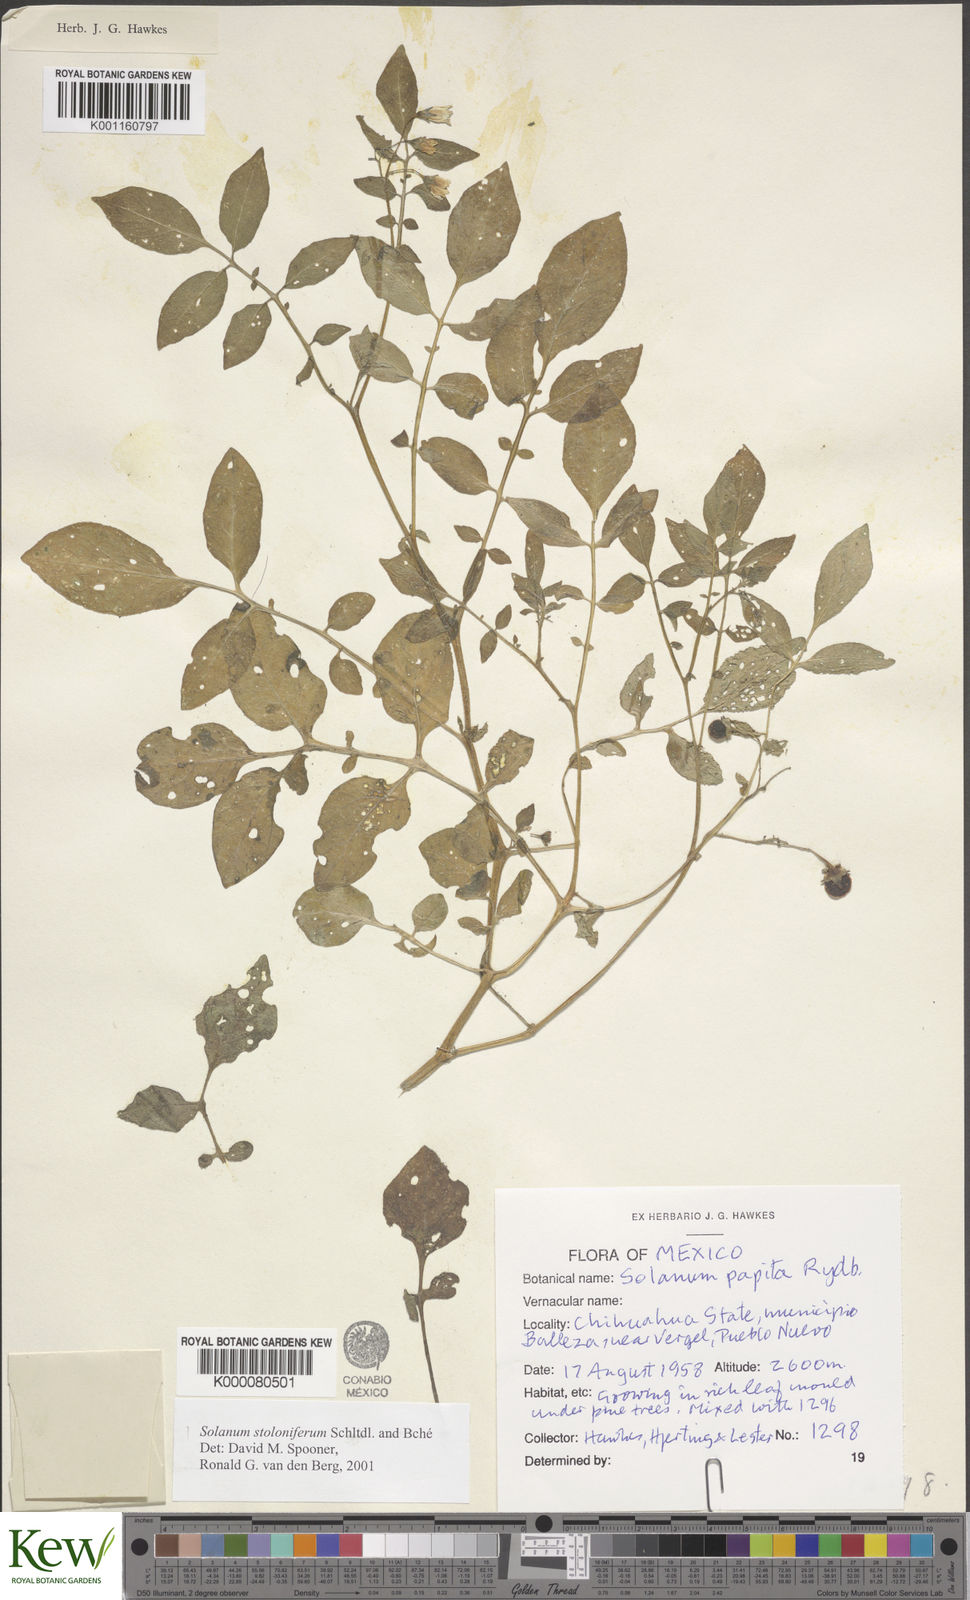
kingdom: Plantae
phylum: Tracheophyta
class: Magnoliopsida
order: Solanales
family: Solanaceae
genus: Solanum
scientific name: Solanum stoloniferum
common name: Fendler's nighshade
